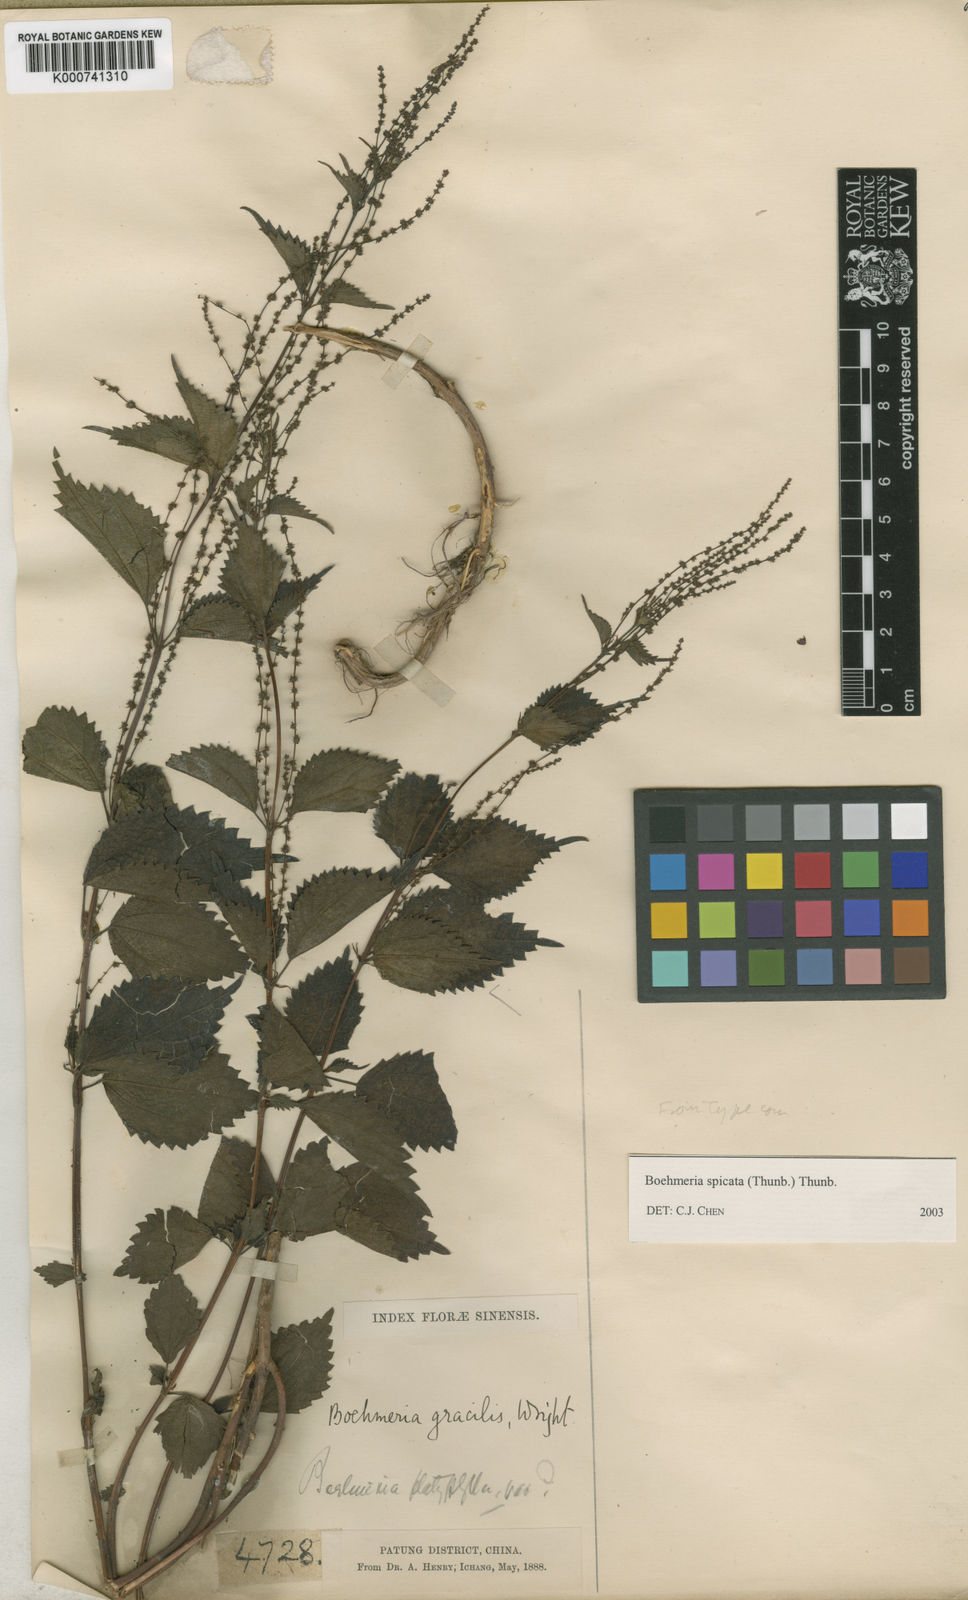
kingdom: Plantae
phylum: Tracheophyta
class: Magnoliopsida
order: Rosales
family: Urticaceae
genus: Boehmeria
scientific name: Boehmeria japonica
